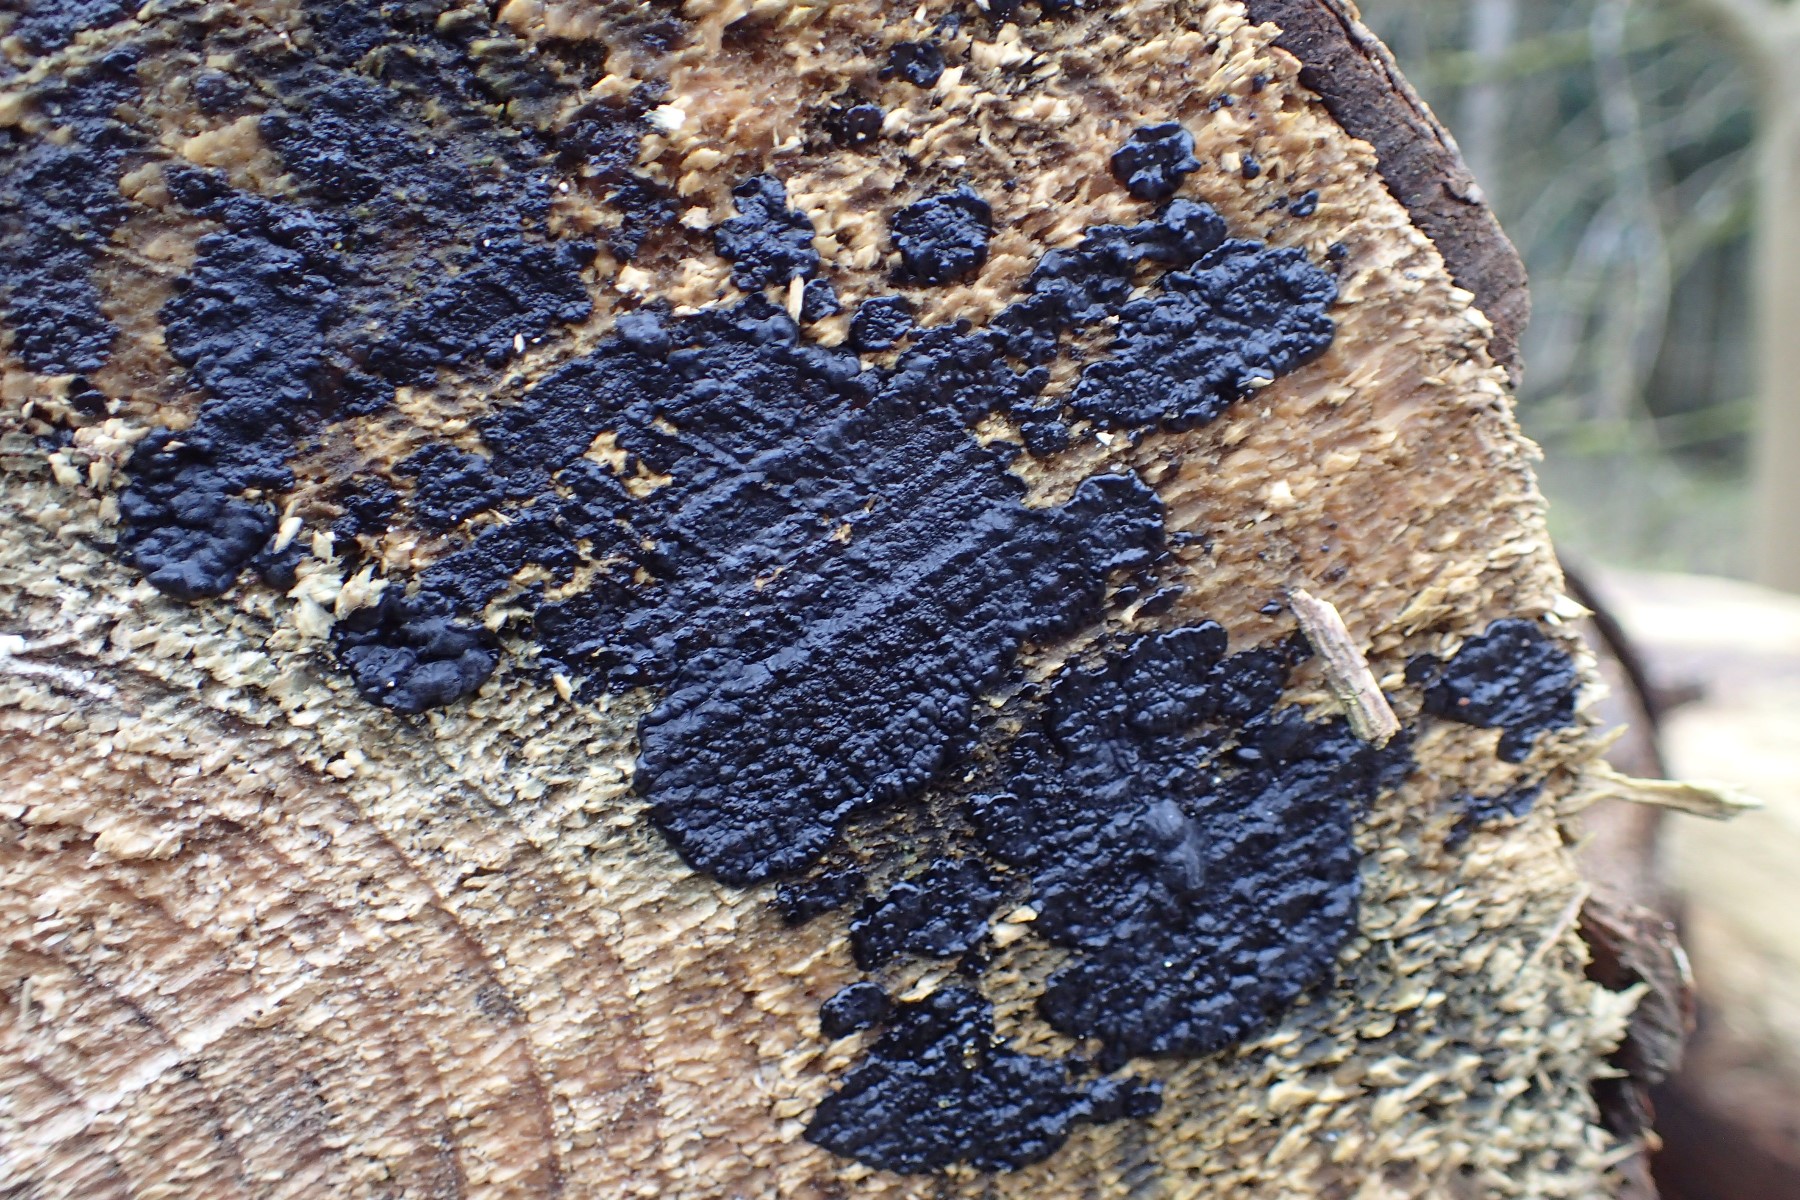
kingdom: Fungi
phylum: Basidiomycota
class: Agaricomycetes
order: Auriculariales
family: Auriculariaceae
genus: Exidia
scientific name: Exidia pithya
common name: gran-bævretop
